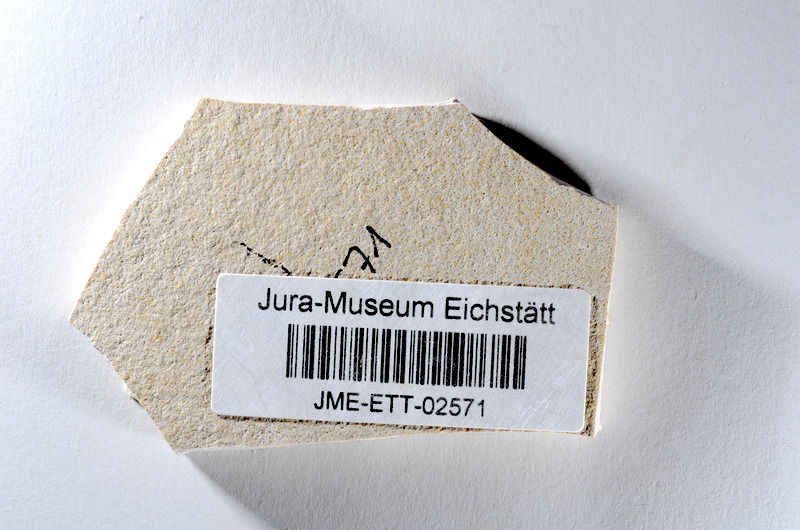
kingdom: Animalia
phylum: Chordata
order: Salmoniformes
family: Orthogonikleithridae
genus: Orthogonikleithrus
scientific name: Orthogonikleithrus hoelli
